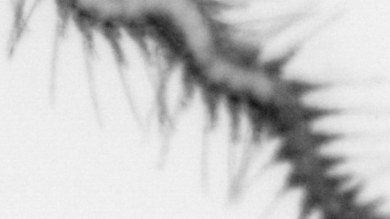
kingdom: Animalia
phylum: Annelida
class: Polychaeta
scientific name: Polychaeta
